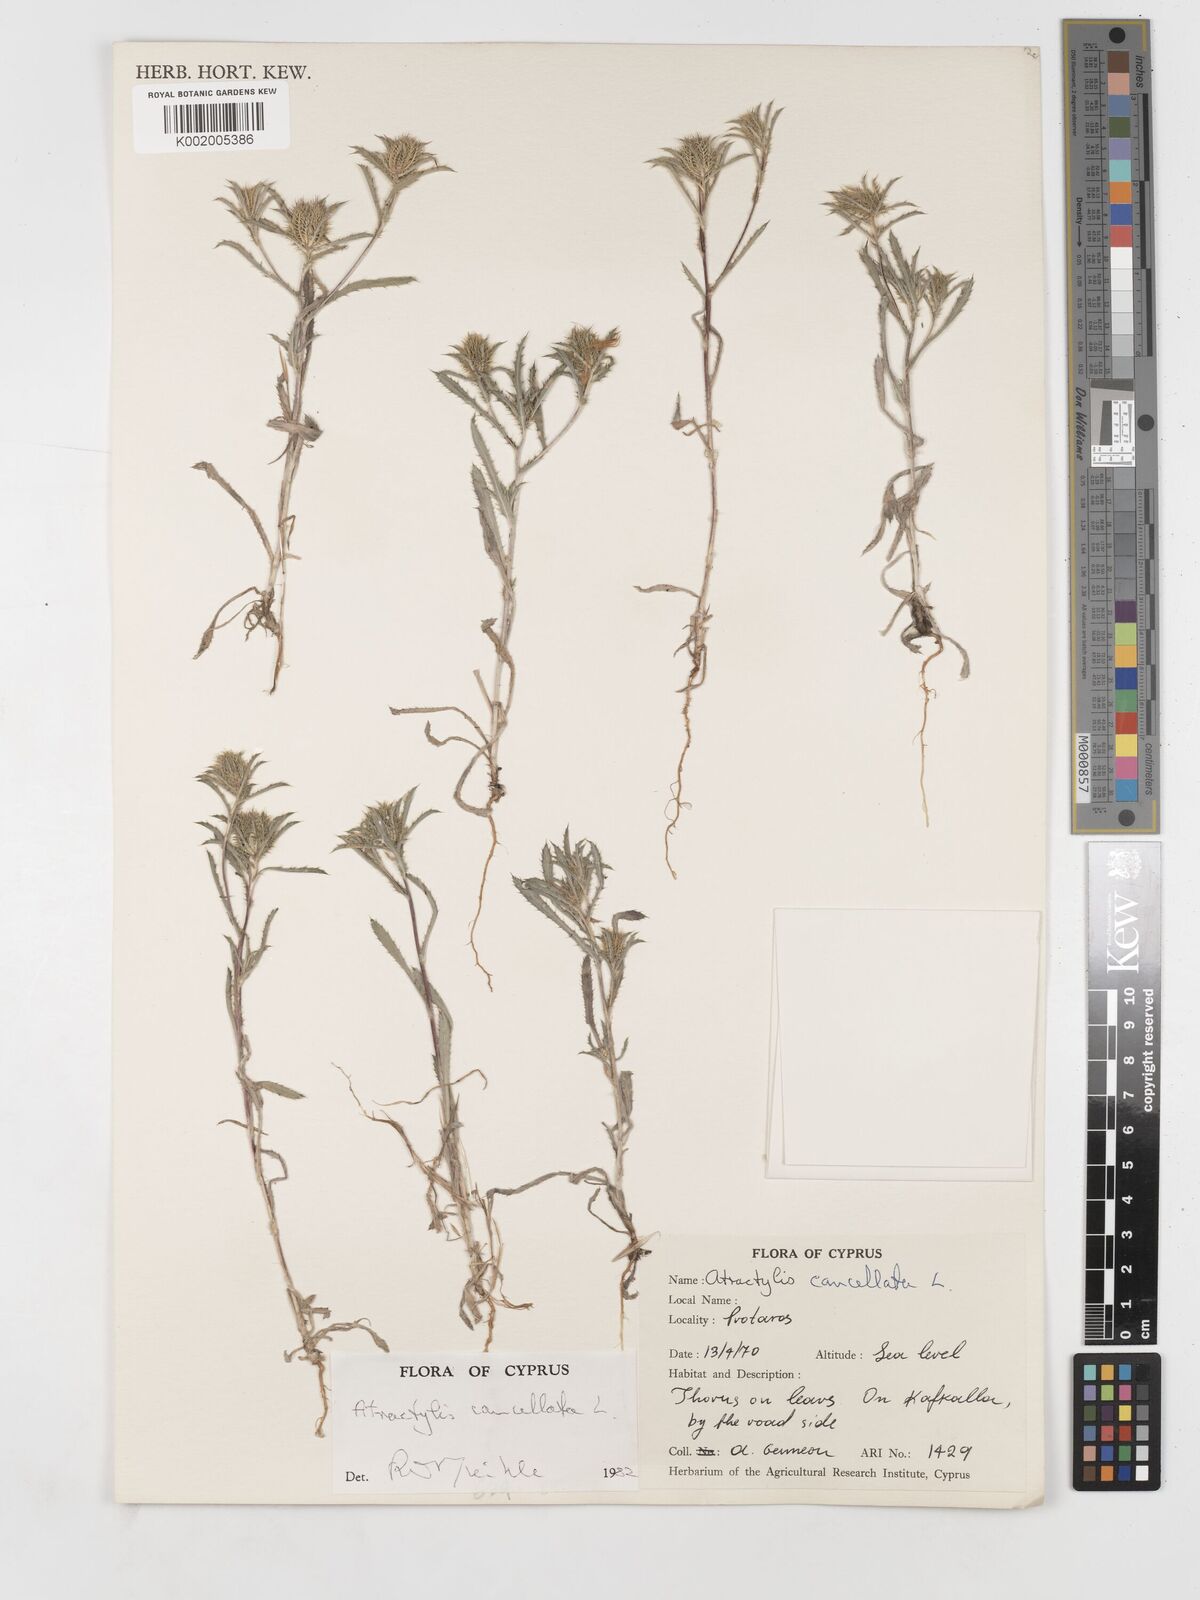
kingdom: Plantae
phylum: Tracheophyta
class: Magnoliopsida
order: Asterales
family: Asteraceae
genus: Atractylis
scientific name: Atractylis cancellata
